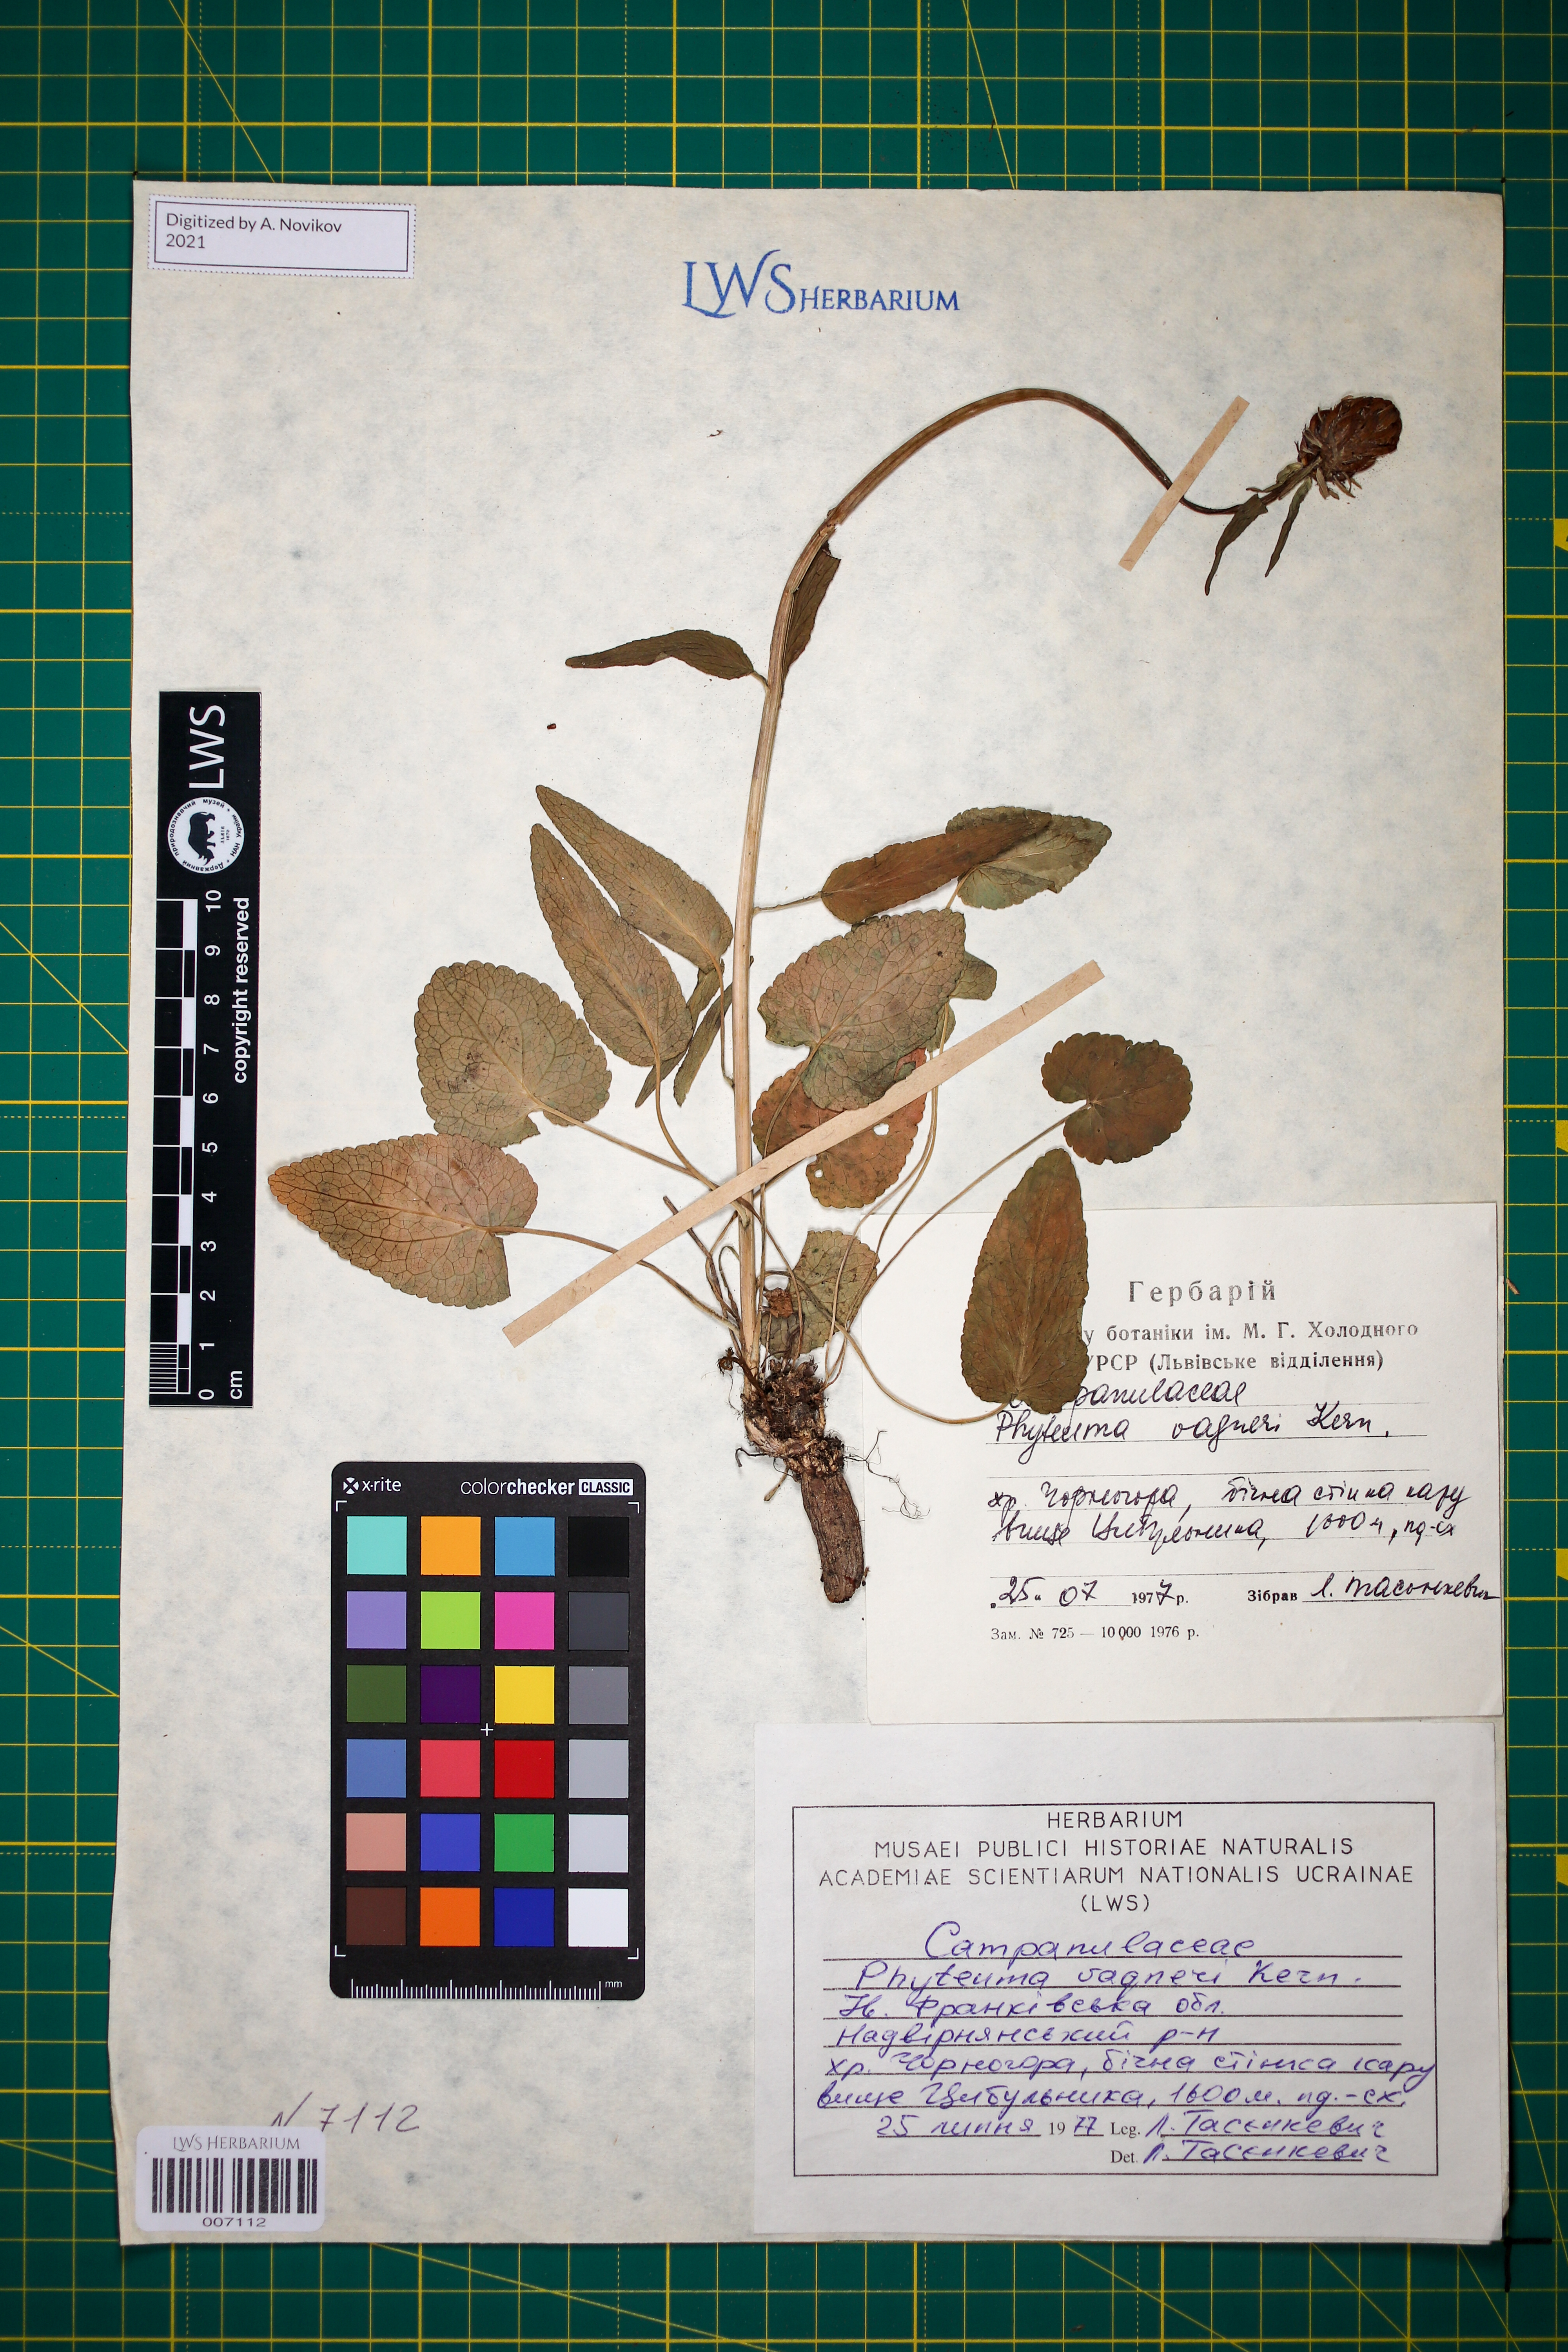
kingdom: Plantae
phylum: Tracheophyta
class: Magnoliopsida
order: Asterales
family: Campanulaceae
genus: Phyteuma
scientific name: Phyteuma vagneri
